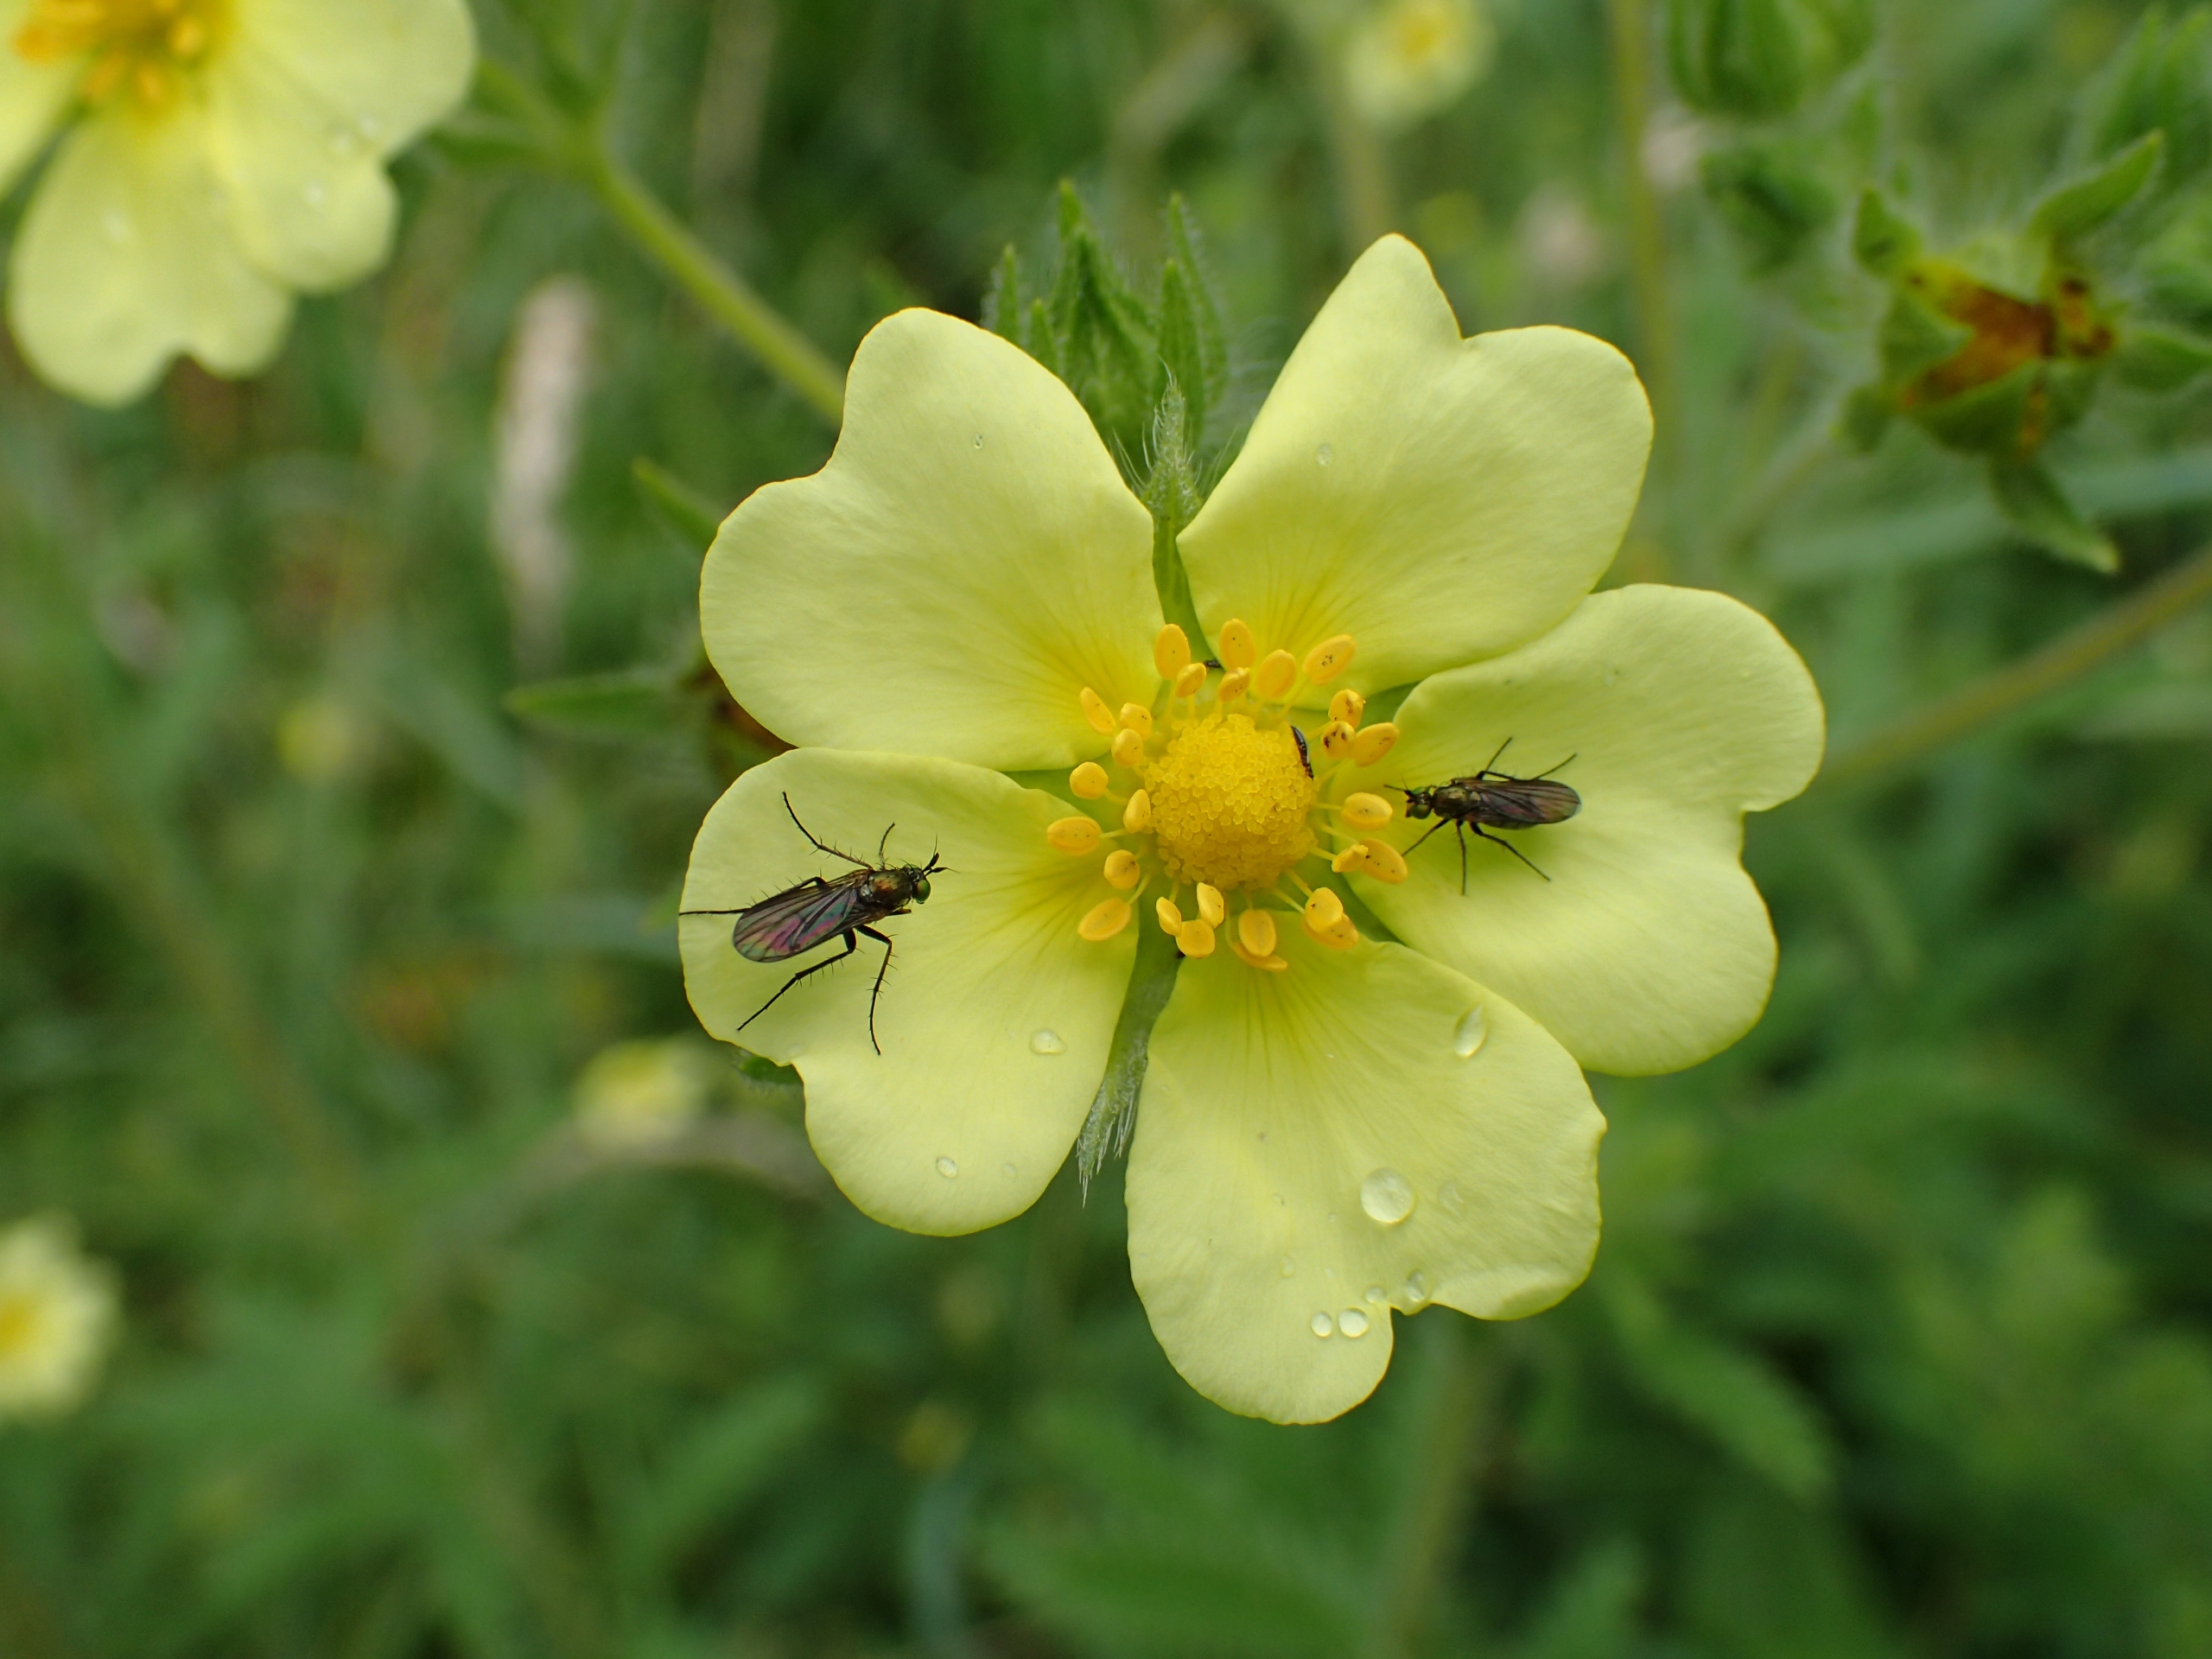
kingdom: Plantae
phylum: Tracheophyta
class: Magnoliopsida
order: Rosales
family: Rosaceae
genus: Potentilla
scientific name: Potentilla recta
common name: Rank potentil
